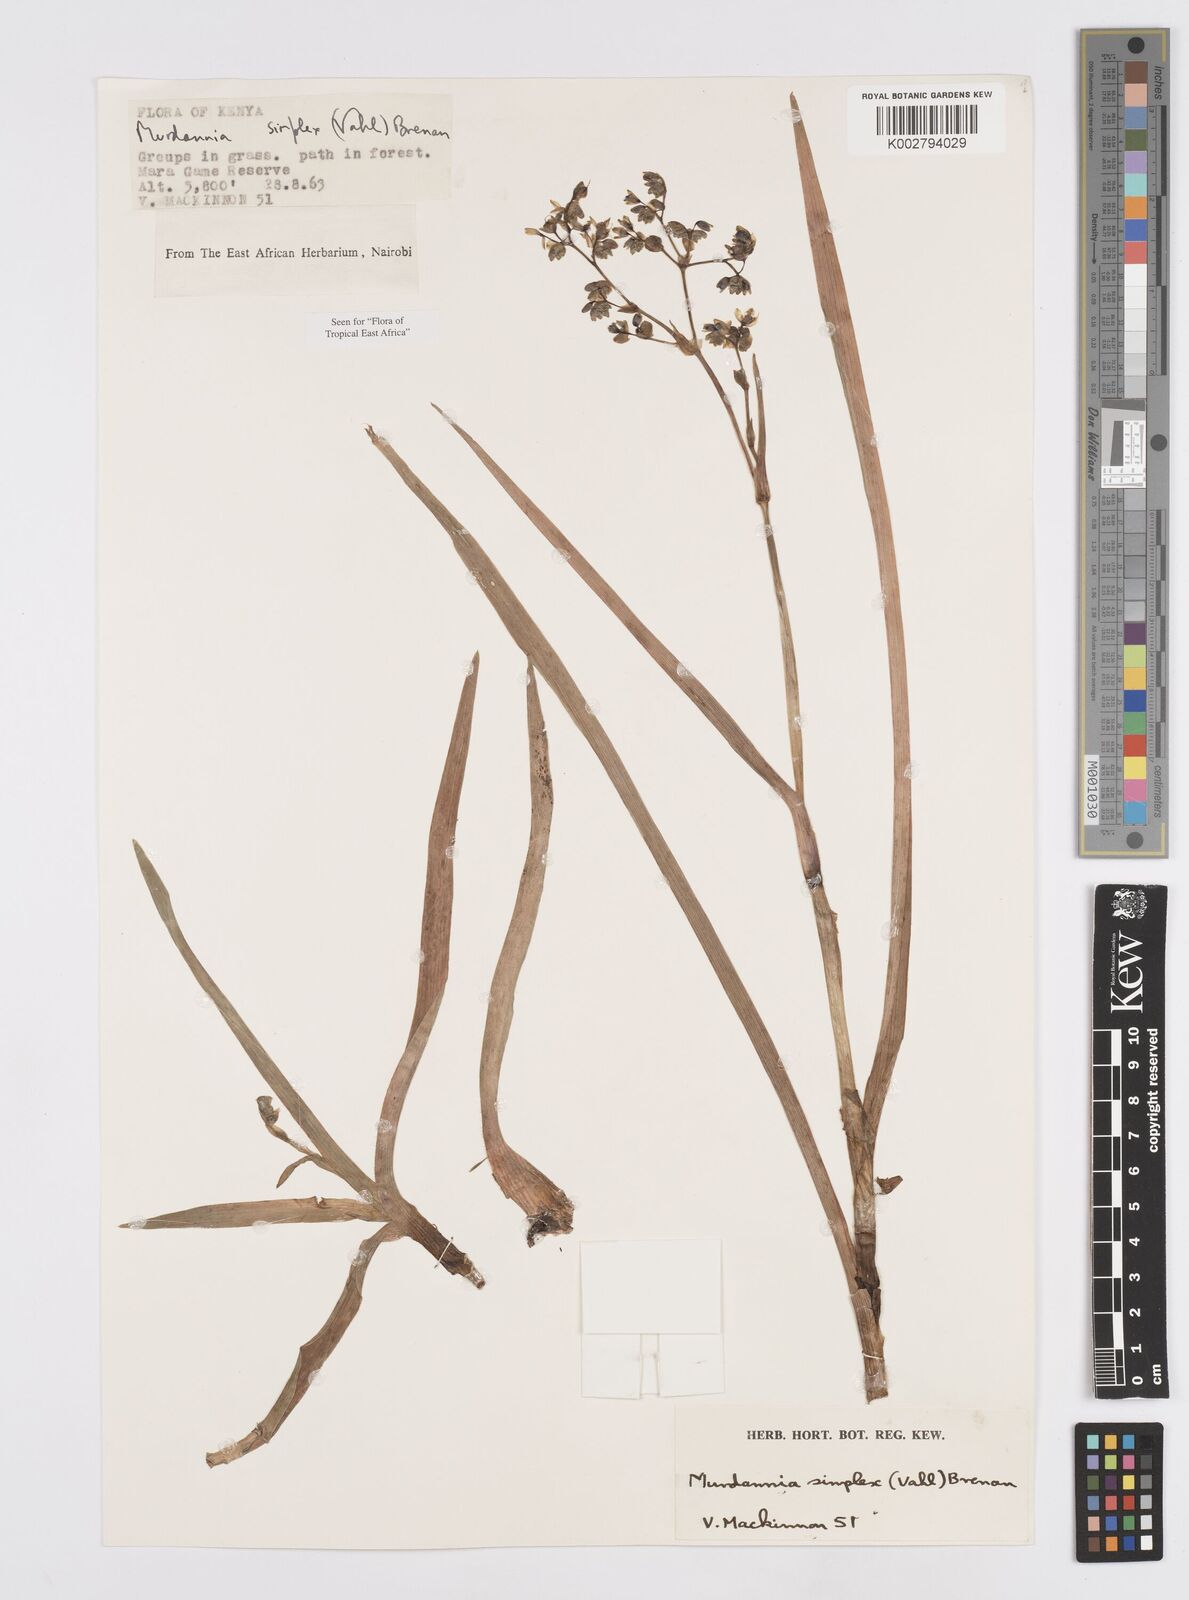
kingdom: Plantae
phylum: Tracheophyta
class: Liliopsida
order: Commelinales
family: Commelinaceae
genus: Murdannia
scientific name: Murdannia simplex
